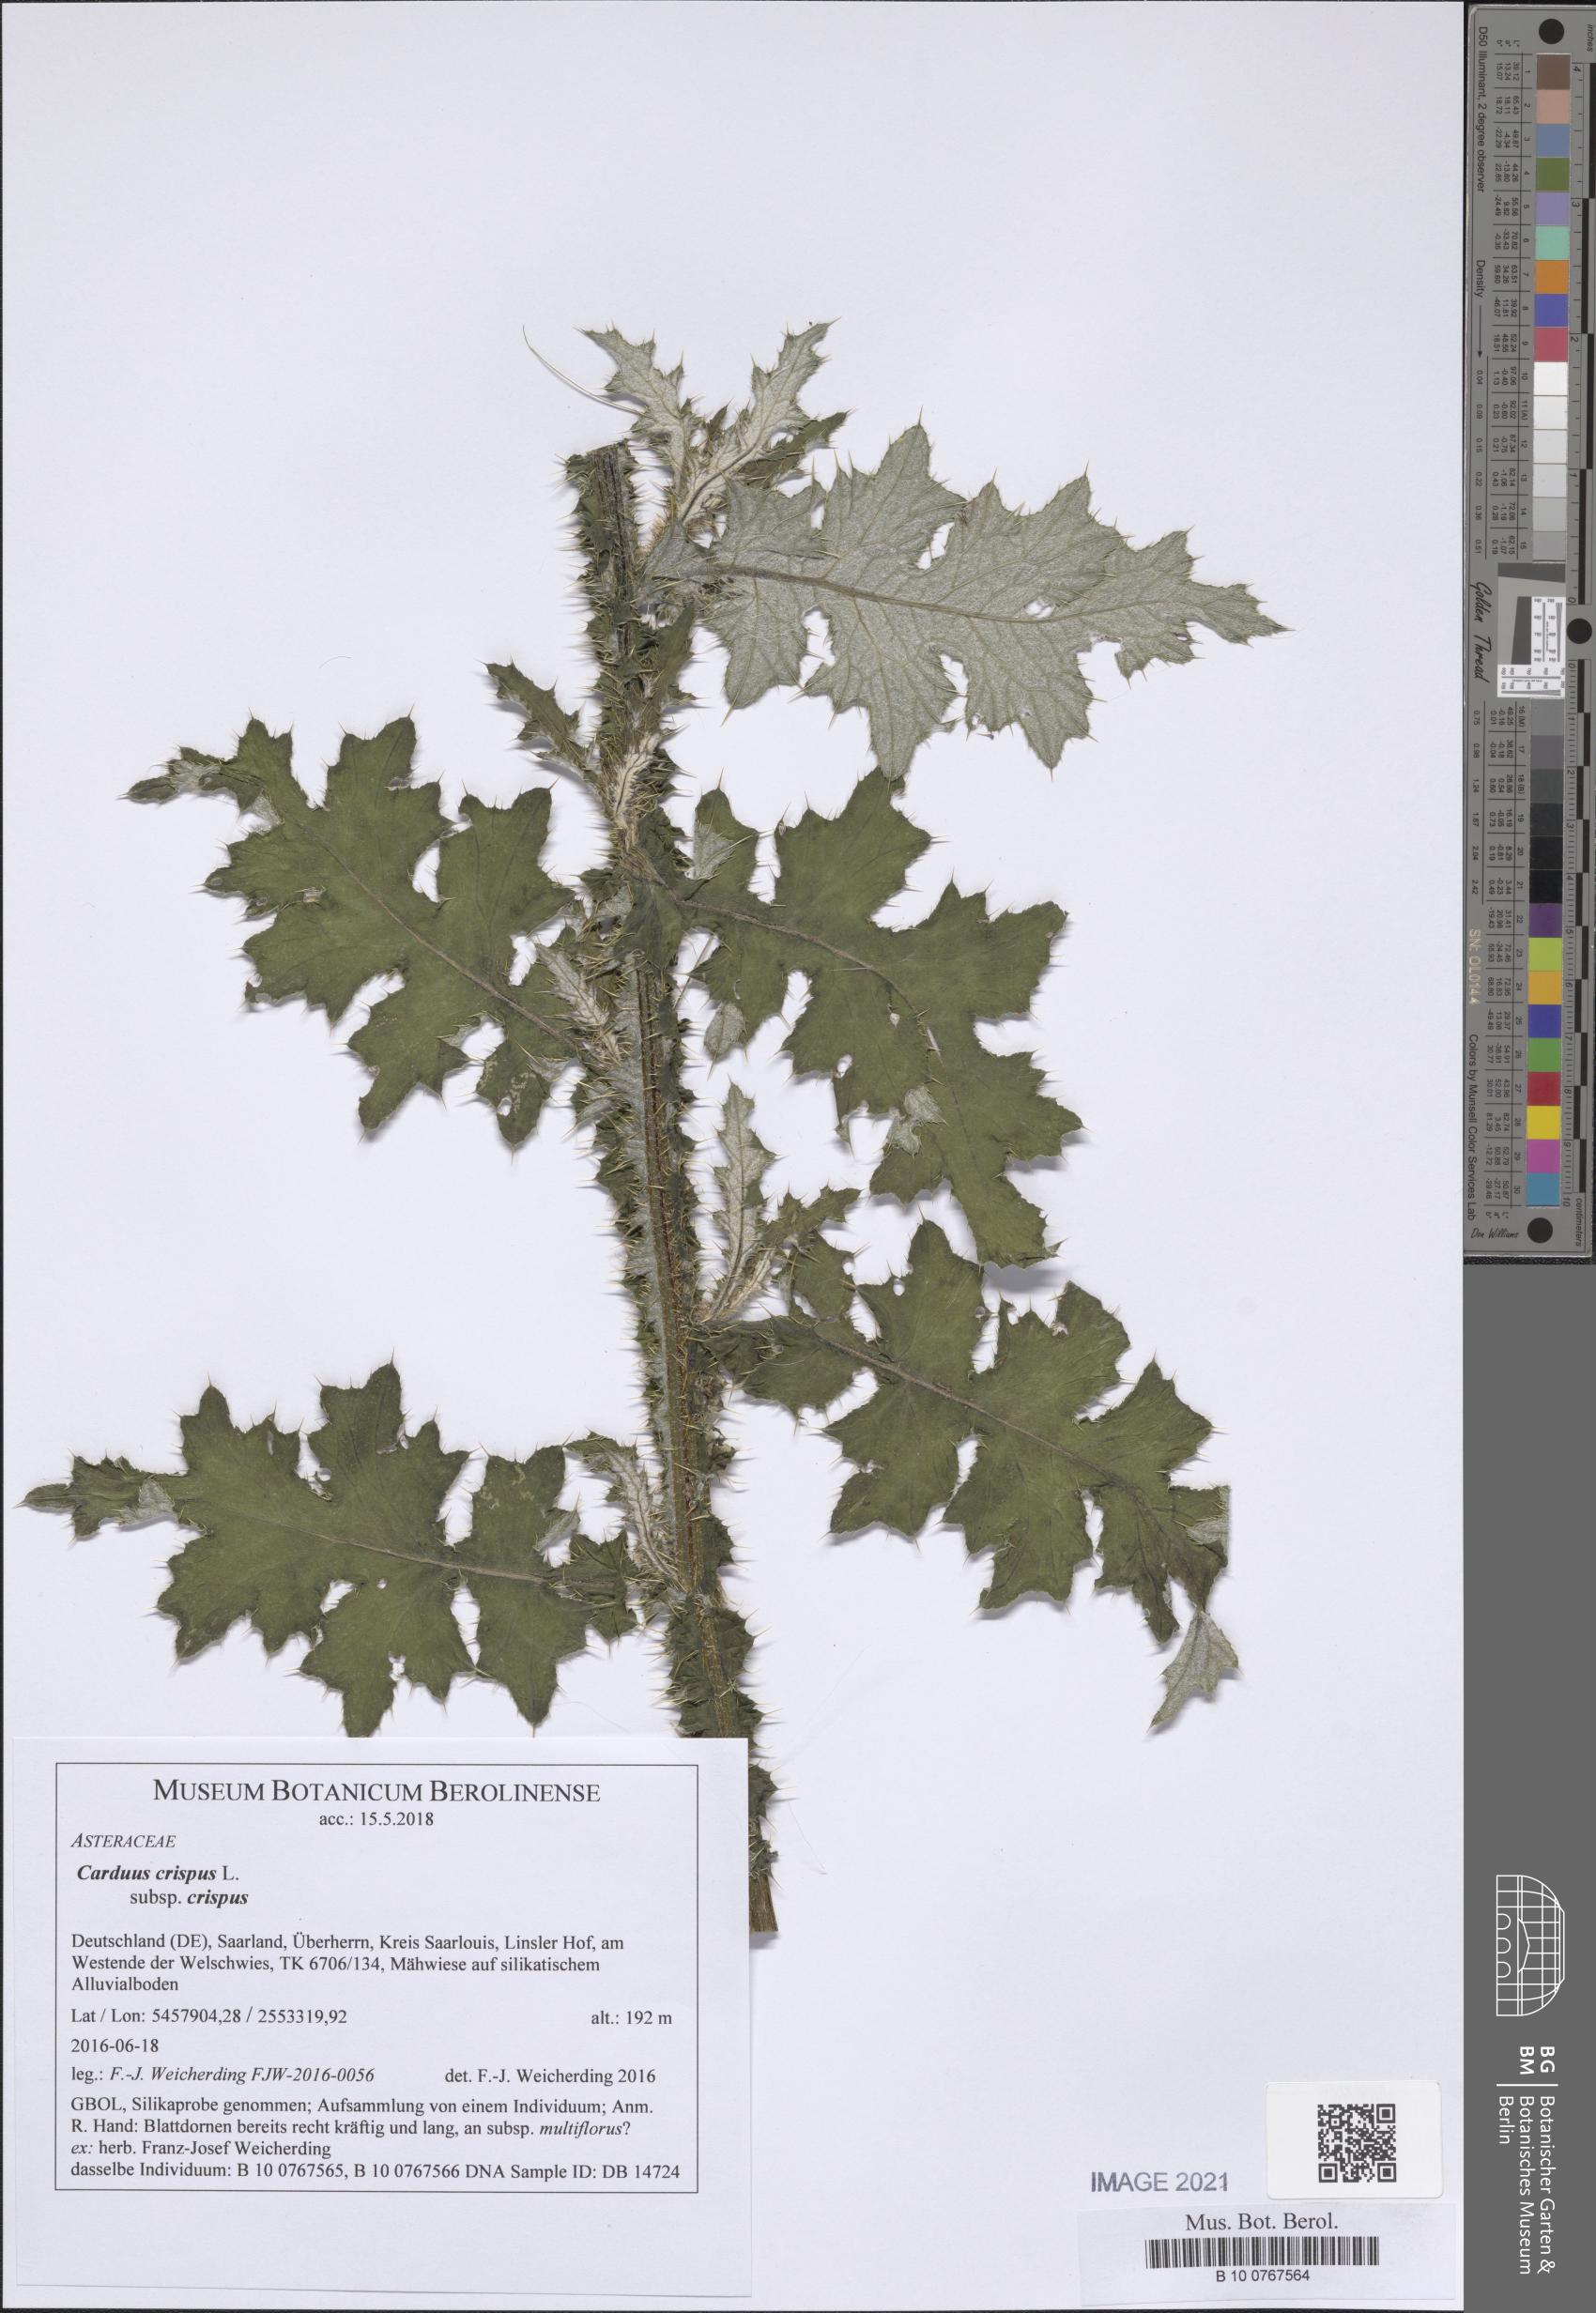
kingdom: Plantae
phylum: Tracheophyta
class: Magnoliopsida
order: Asterales
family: Asteraceae
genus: Carduus
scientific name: Carduus crispus
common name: Welted thistle
